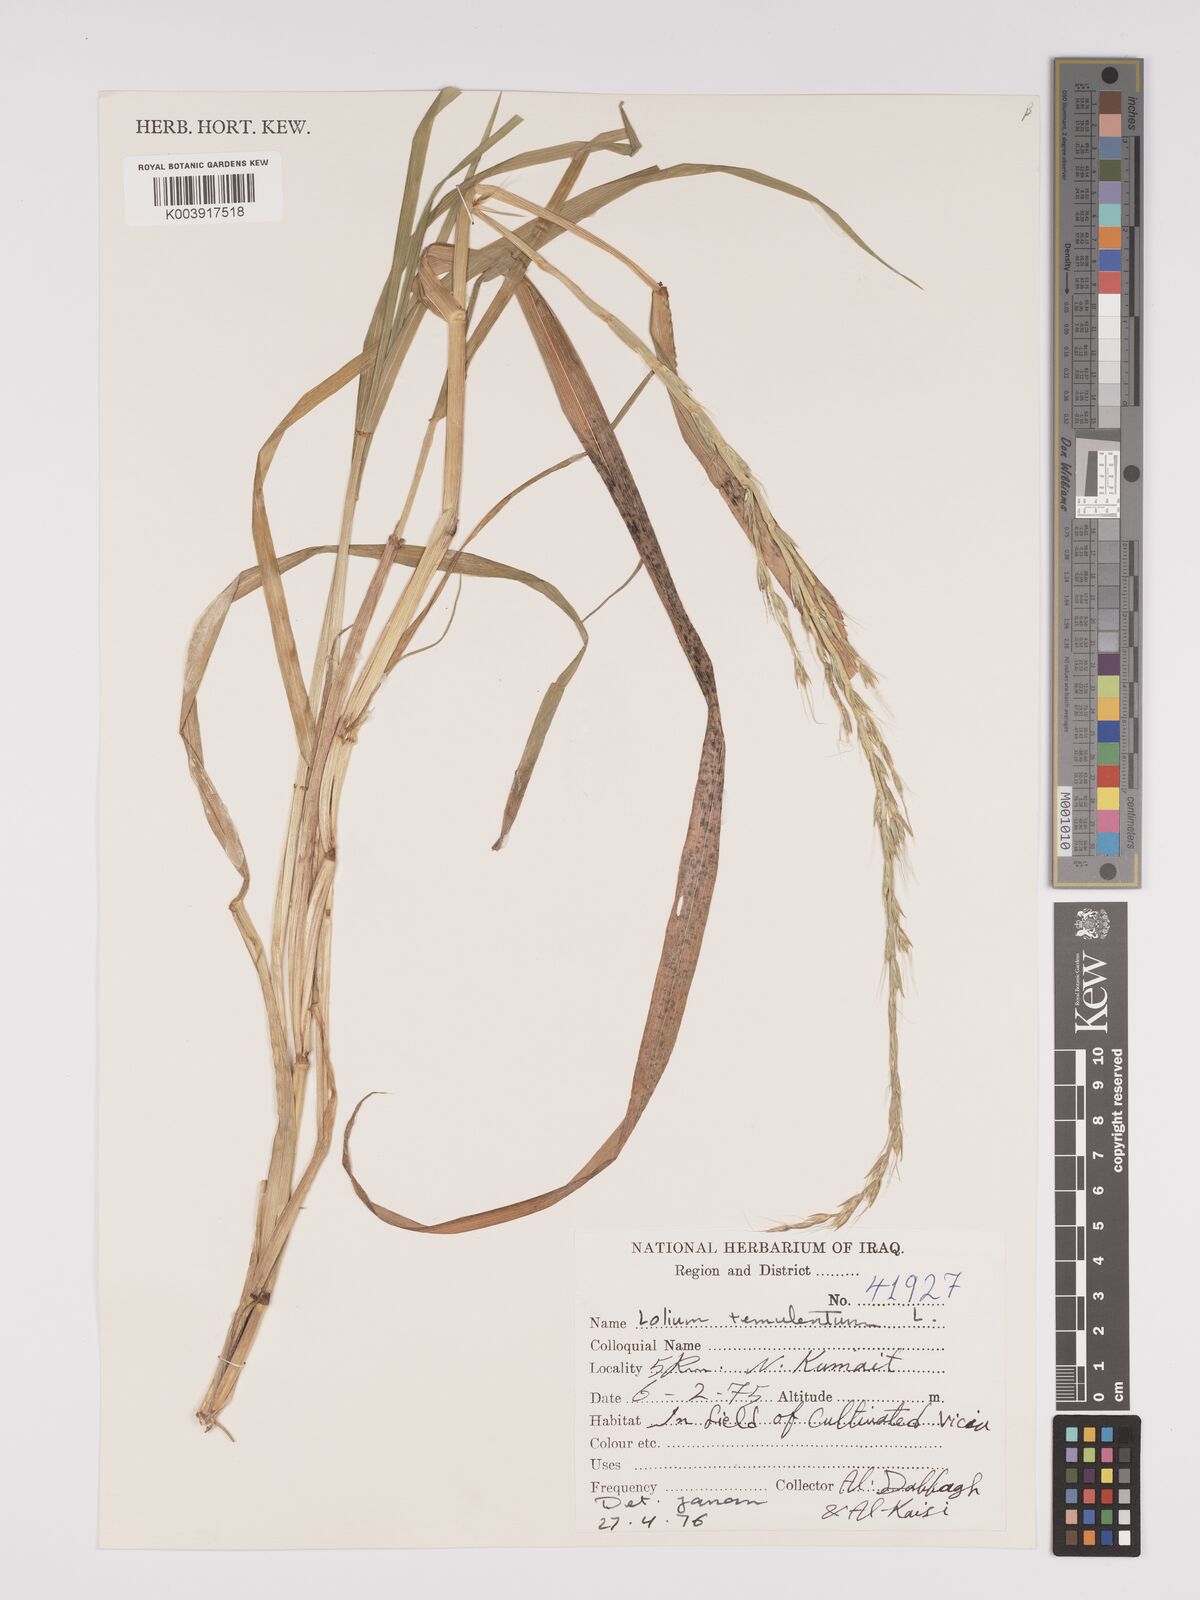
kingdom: Plantae
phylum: Tracheophyta
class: Liliopsida
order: Poales
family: Poaceae
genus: Lolium
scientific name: Lolium temulentum
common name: Darnel
